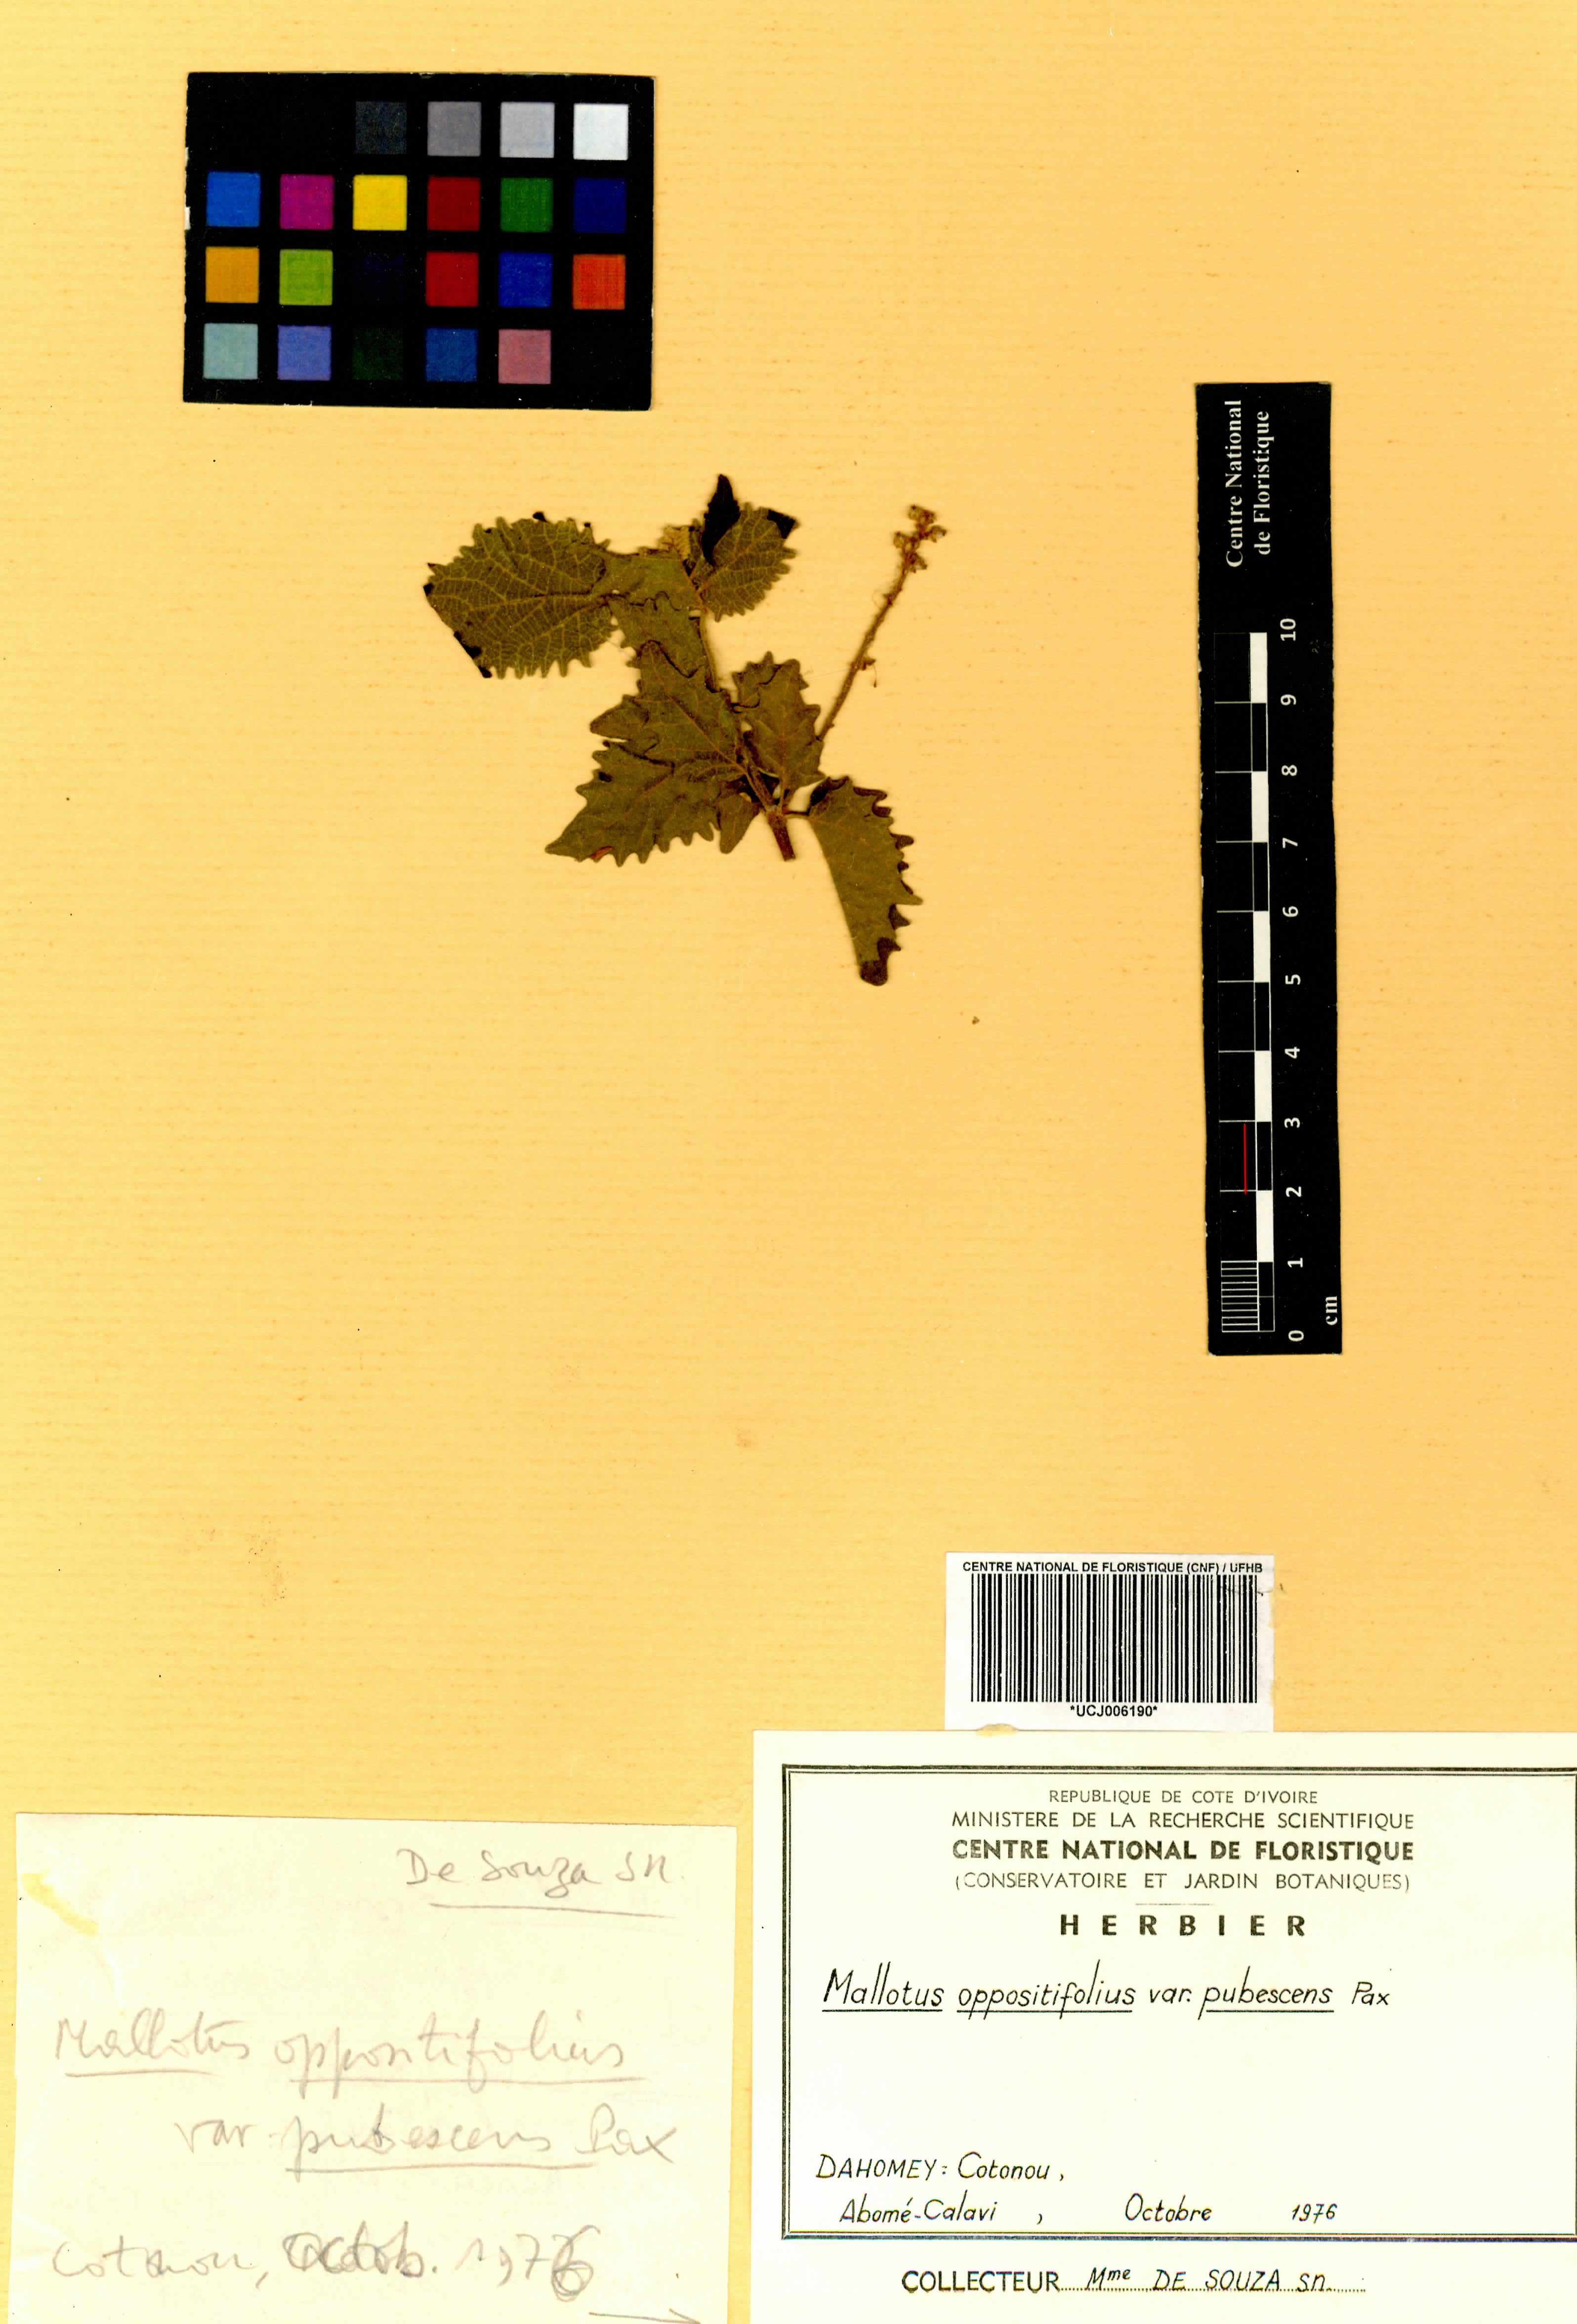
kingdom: Plantae
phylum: Tracheophyta
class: Magnoliopsida
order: Malpighiales
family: Euphorbiaceae
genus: Mallotus
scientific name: Mallotus oppositifolius
